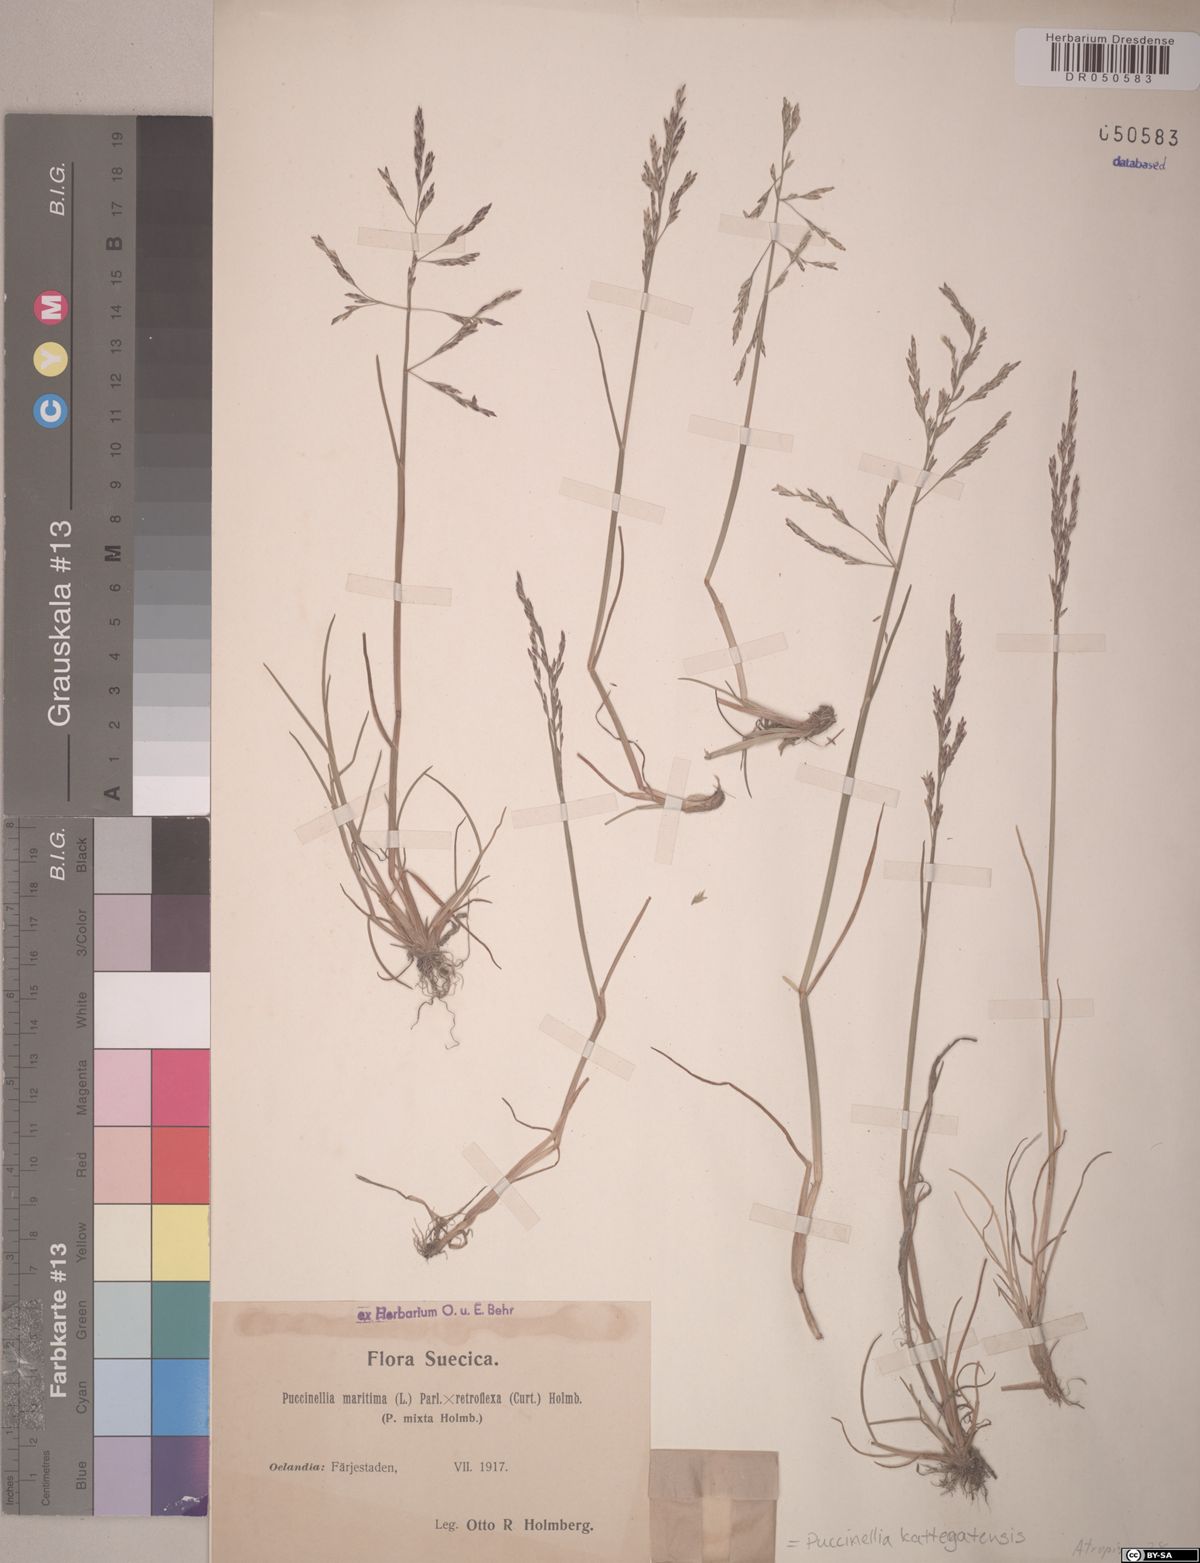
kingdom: Plantae
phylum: Tracheophyta
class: Liliopsida
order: Poales
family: Poaceae
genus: Puccinellia
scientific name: Puccinellia kattegatensis
